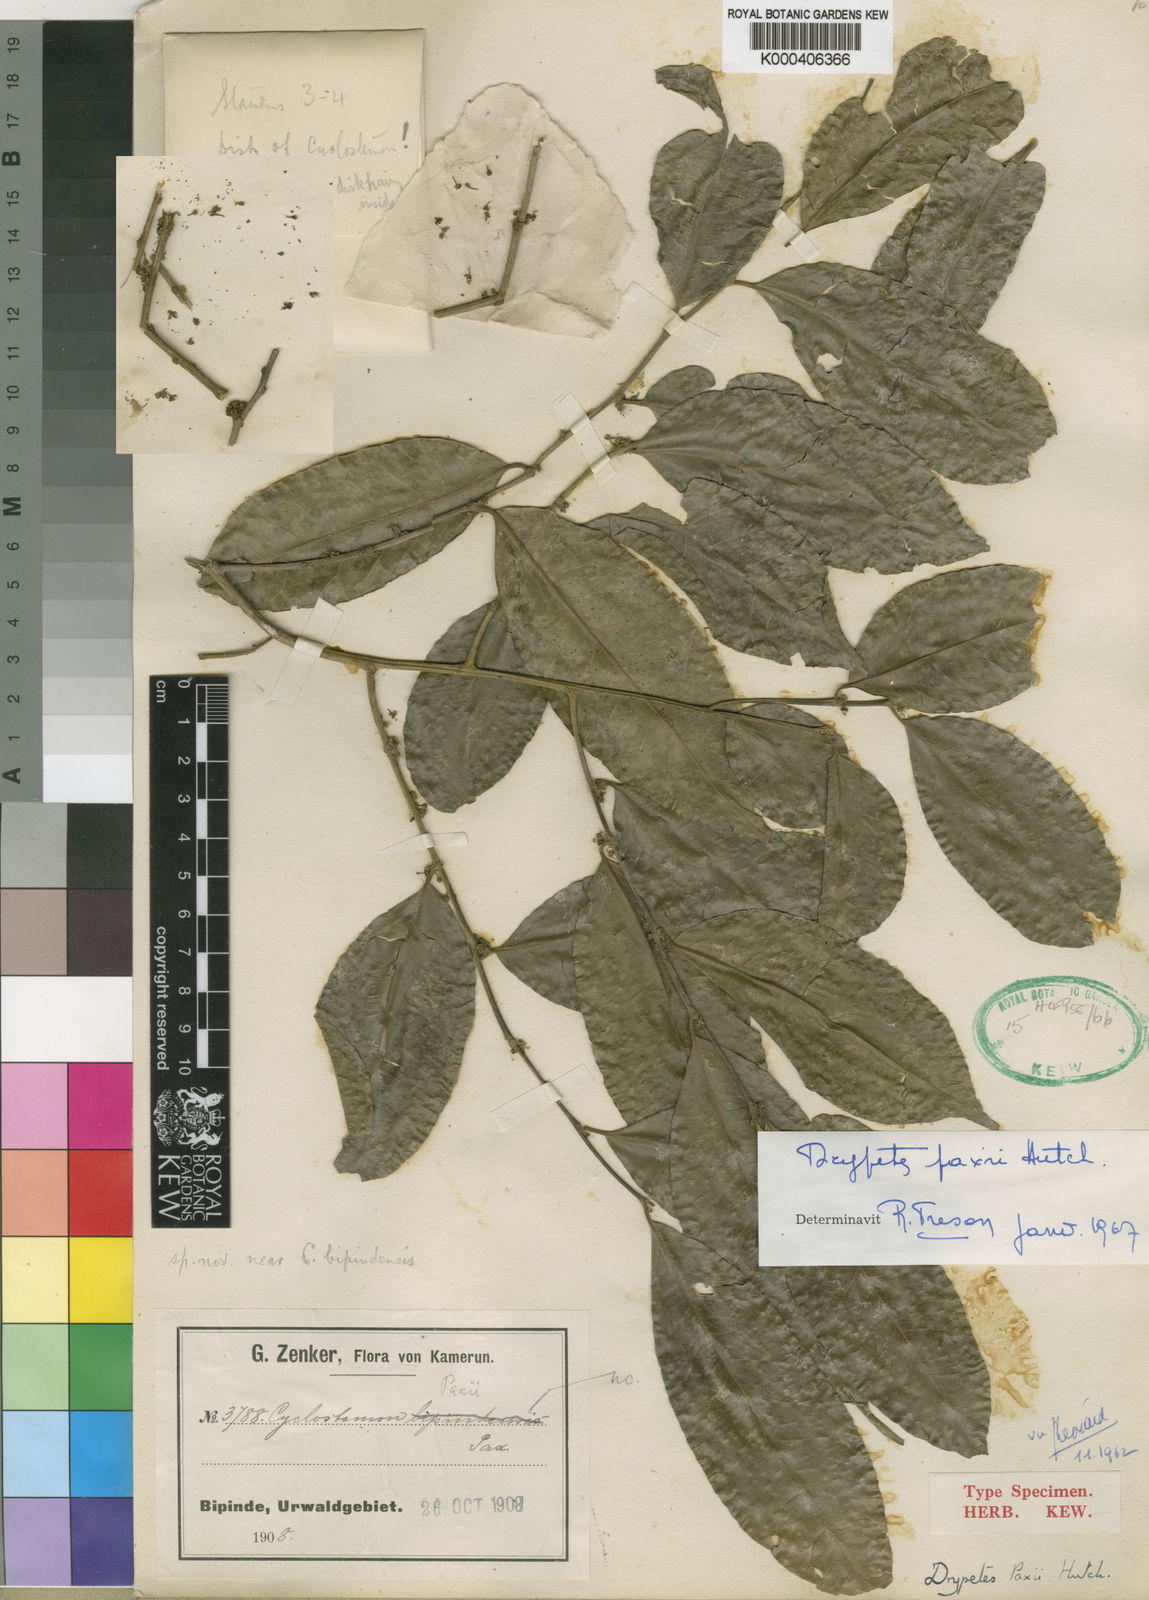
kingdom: Plantae
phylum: Tracheophyta
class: Magnoliopsida
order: Malpighiales
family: Putranjivaceae
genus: Drypetes
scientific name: Drypetes paxii
